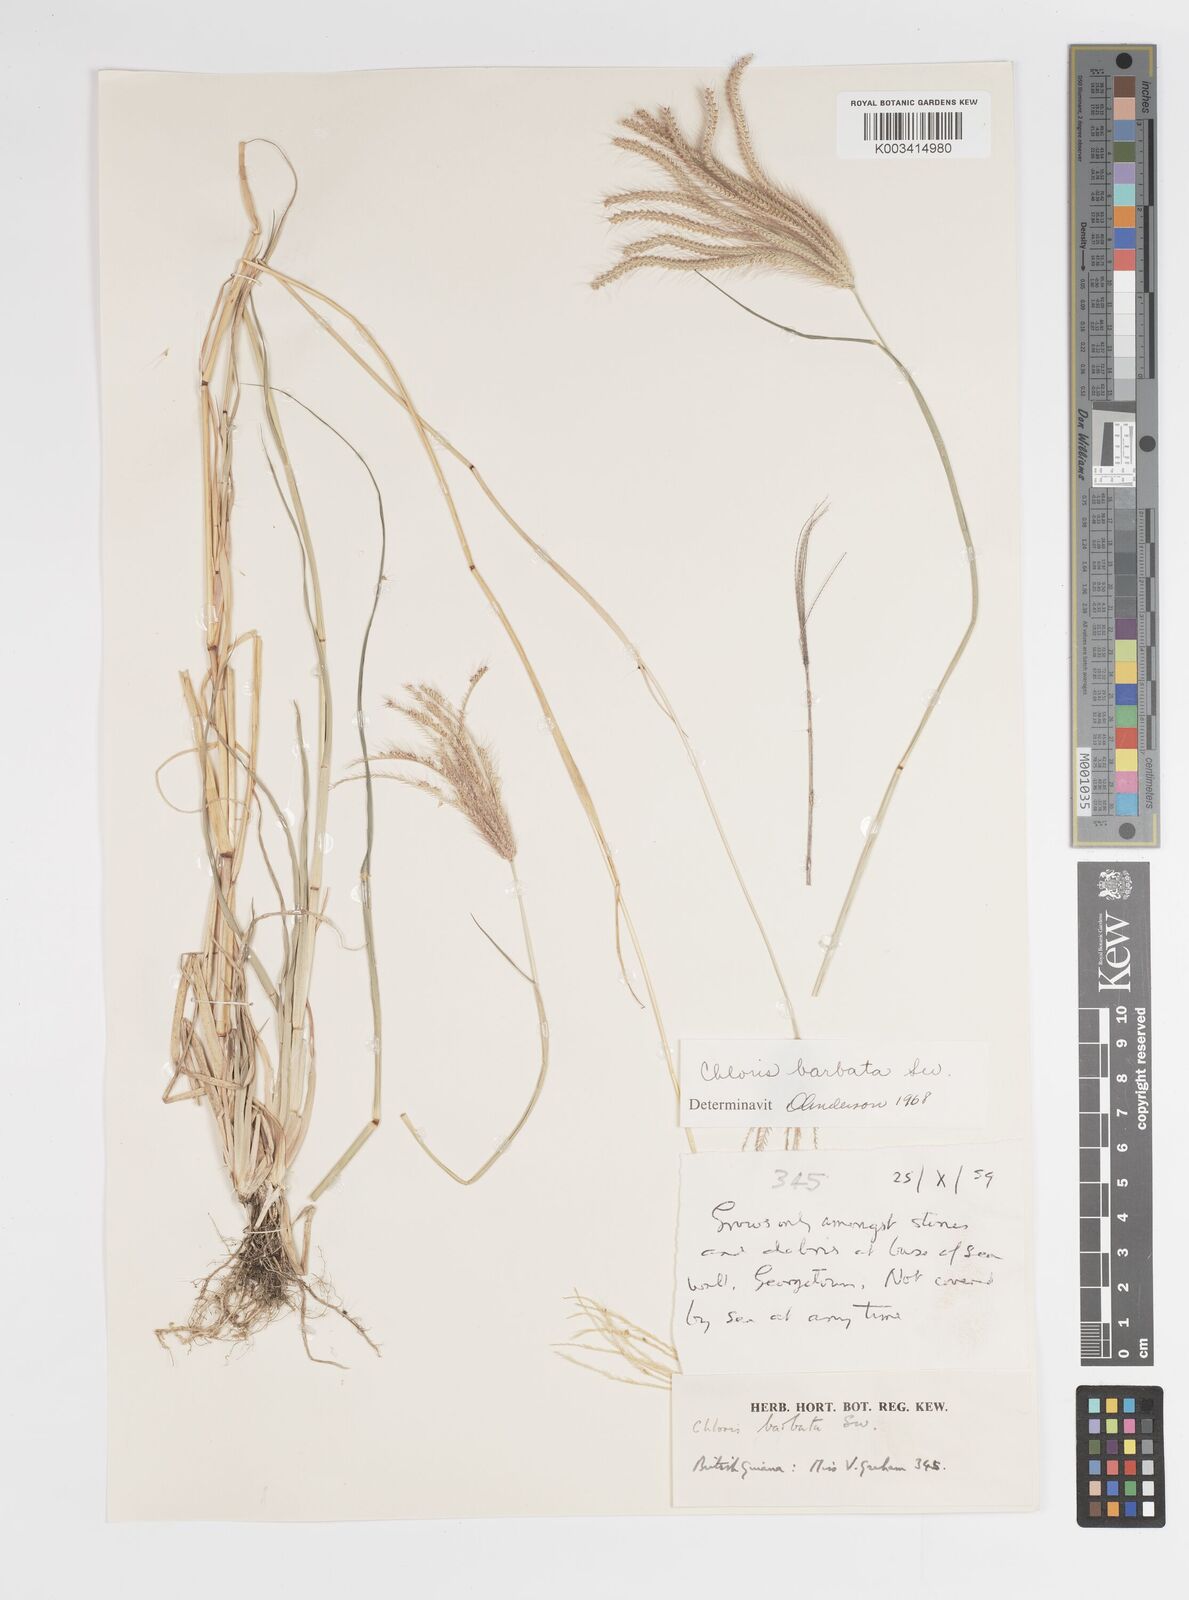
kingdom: Plantae
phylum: Tracheophyta
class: Liliopsida
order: Poales
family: Poaceae
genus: Chloris
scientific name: Chloris barbata
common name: Swollen fingergrass
